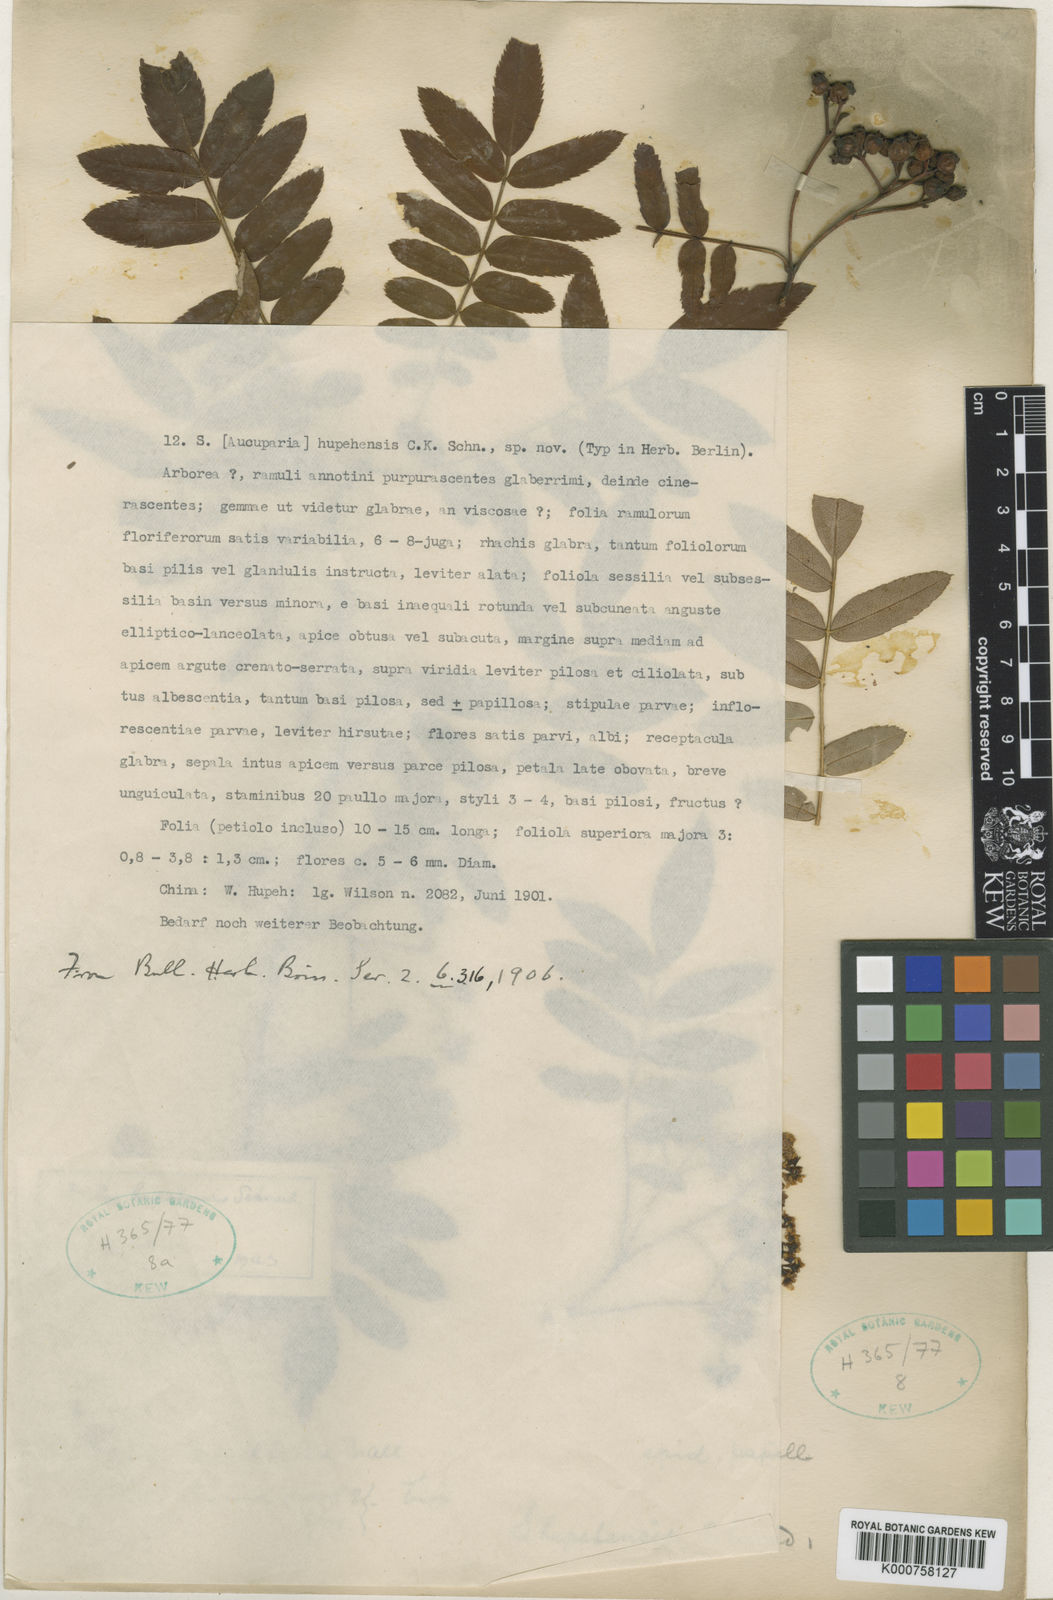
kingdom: Plantae
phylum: Tracheophyta
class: Magnoliopsida
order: Rosales
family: Rosaceae
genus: Sorbus
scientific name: Sorbus hupehensis
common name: Hupeh rowan
